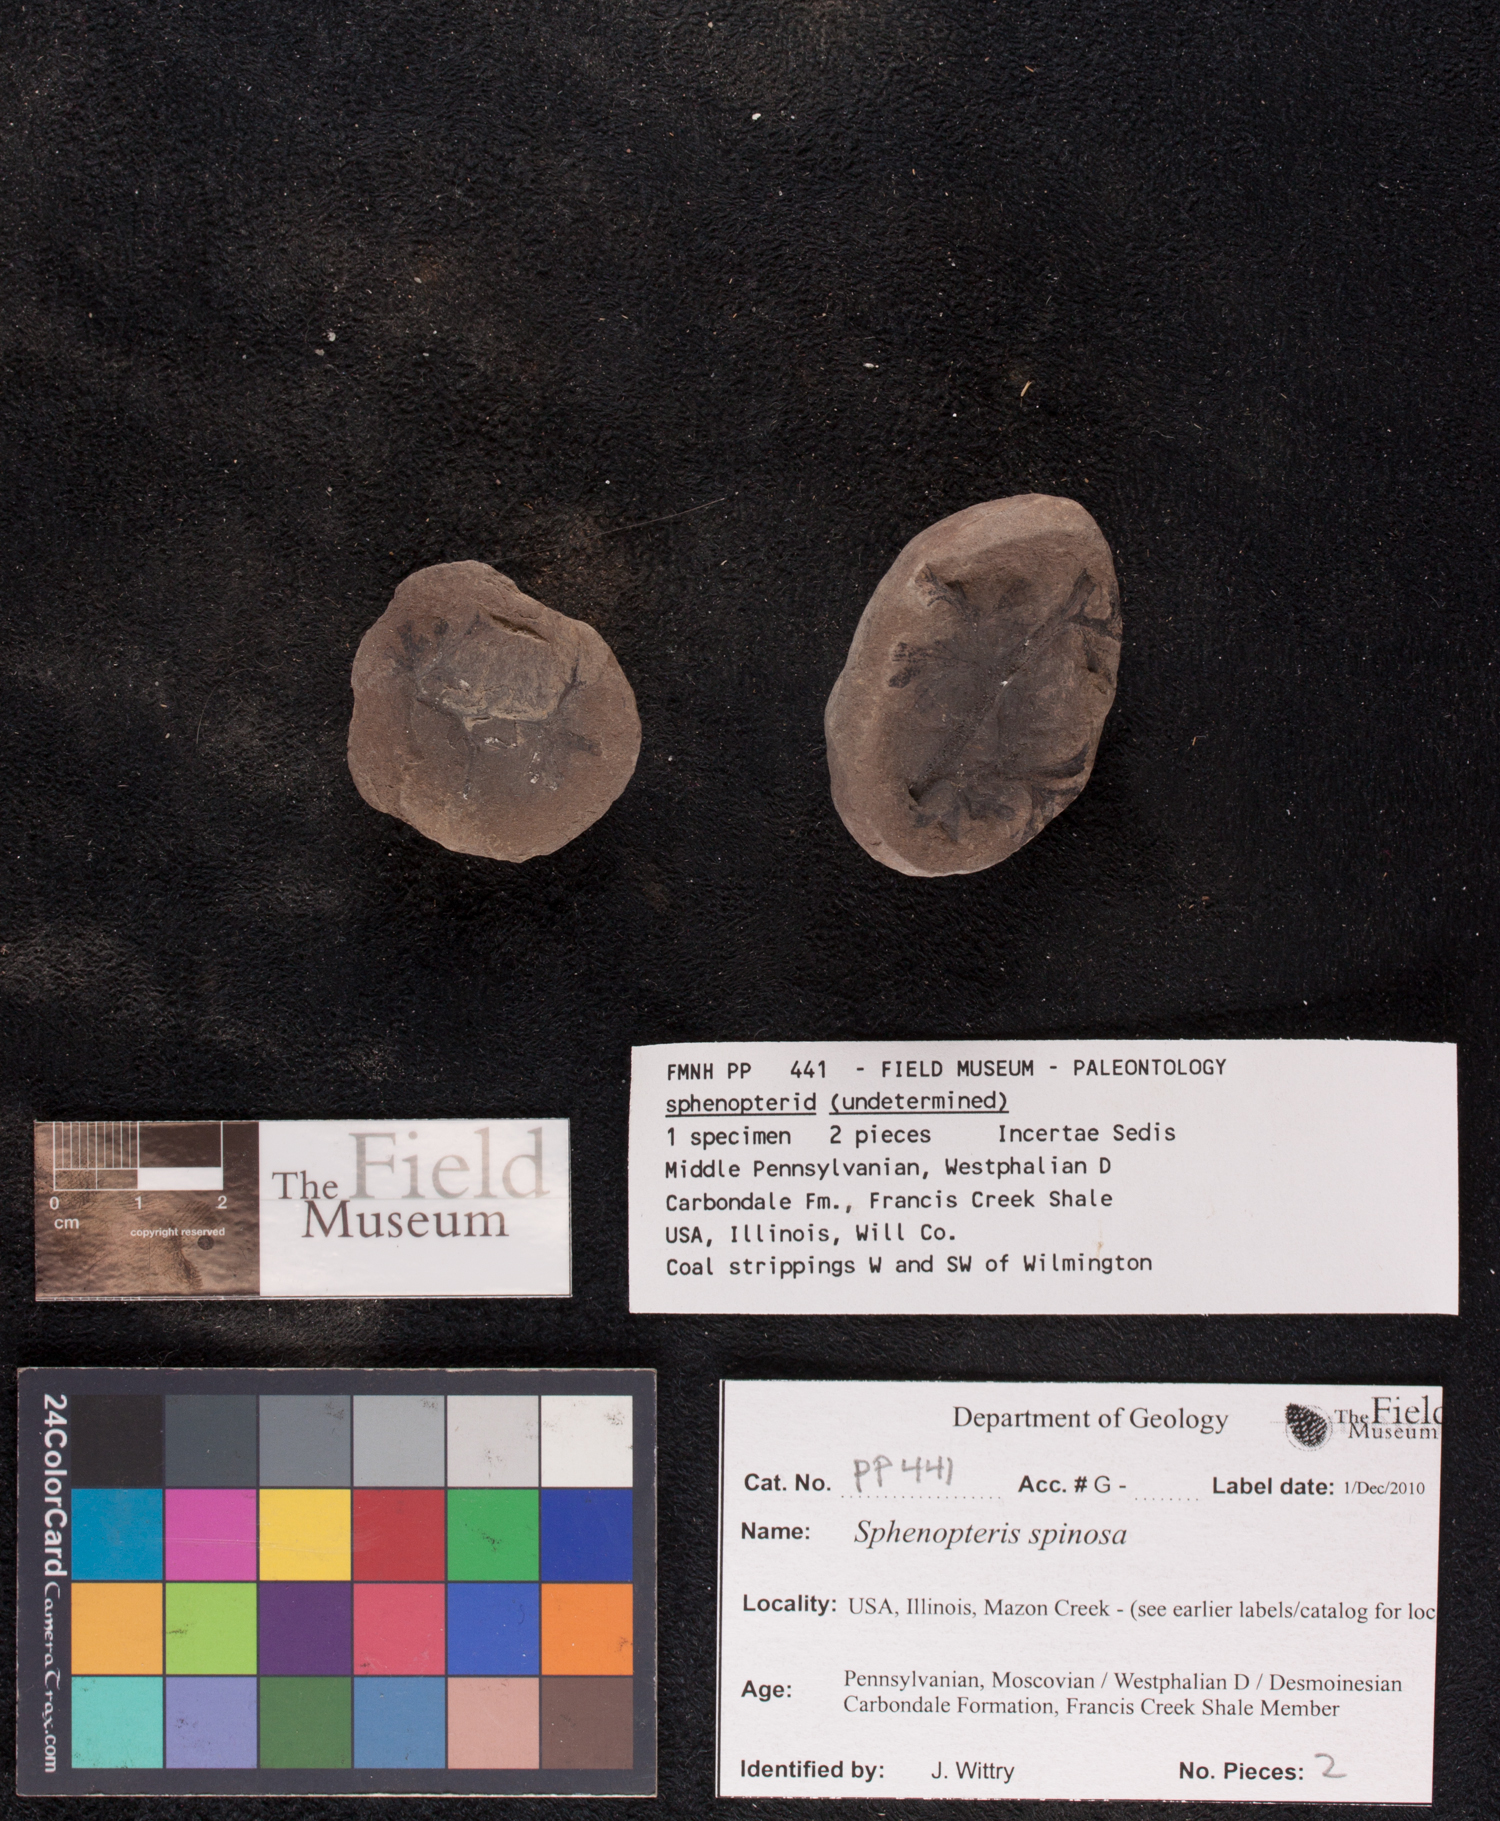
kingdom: Plantae
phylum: Tracheophyta
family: Lyginopteridaceae
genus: Sphenopteris
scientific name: Sphenopteris
